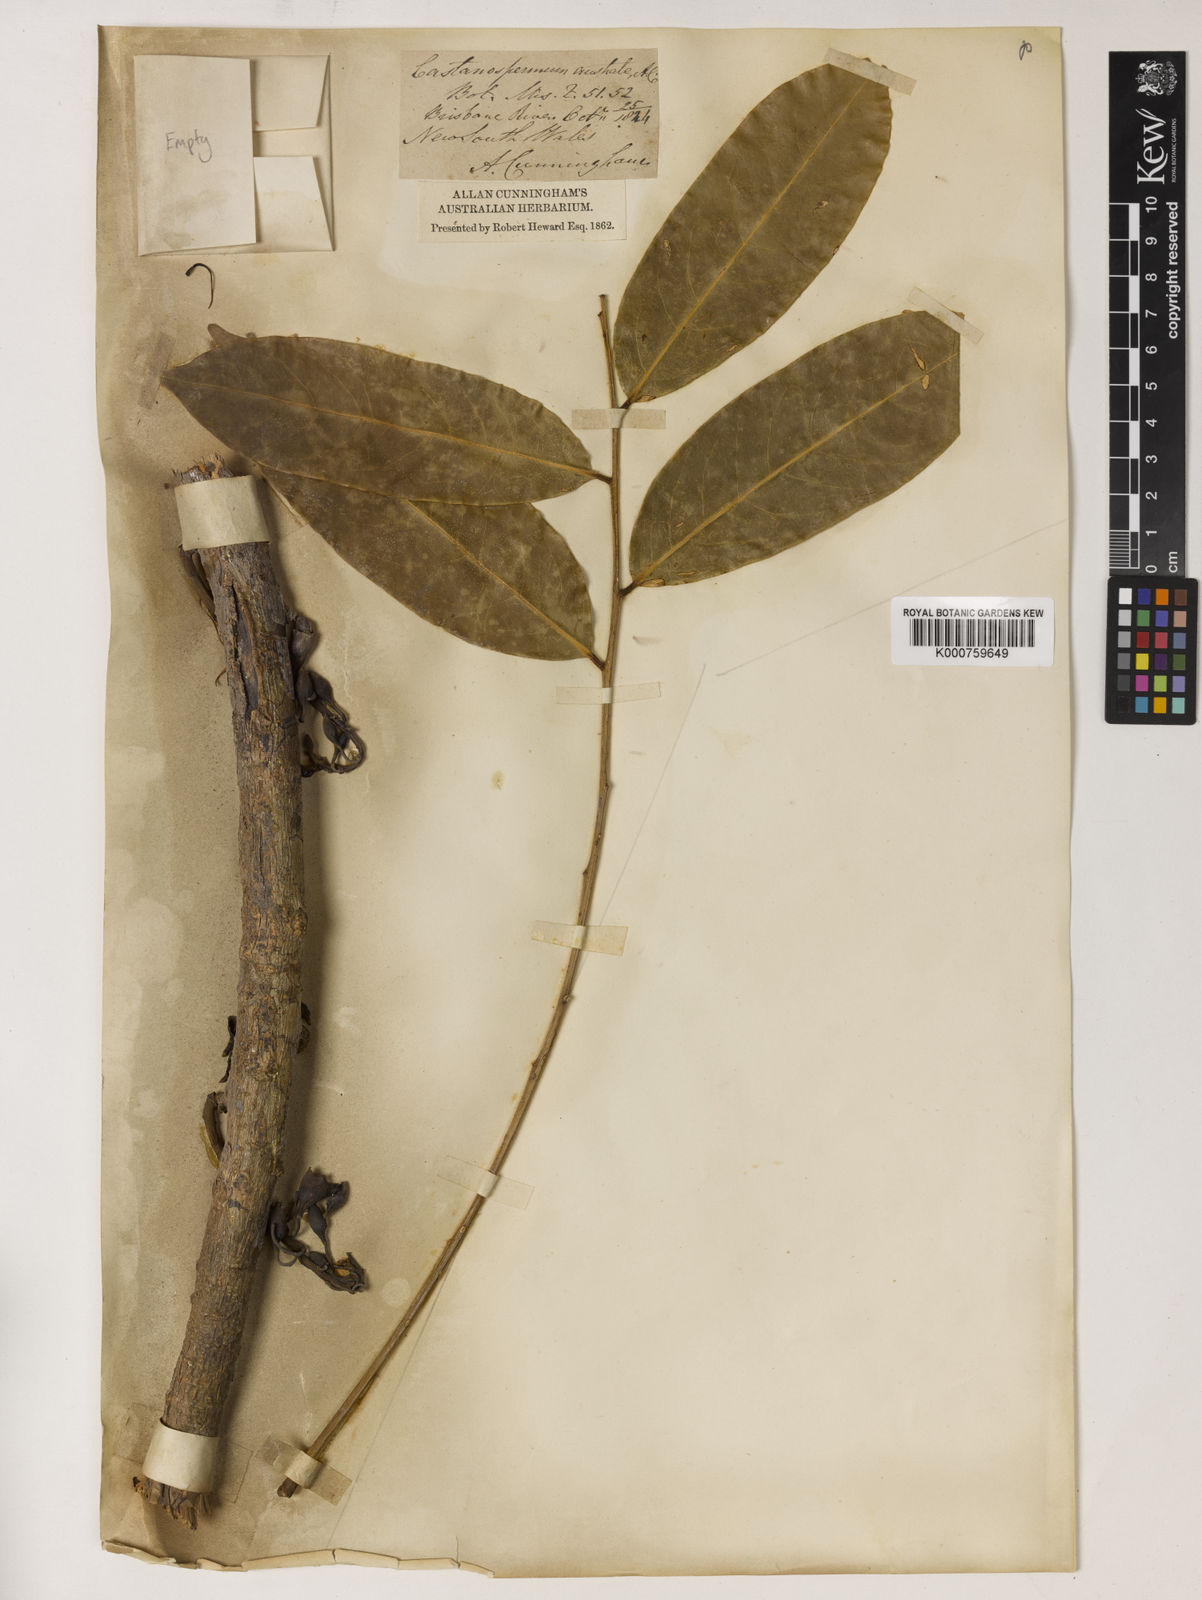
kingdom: Plantae
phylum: Tracheophyta
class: Magnoliopsida
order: Fabales
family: Fabaceae
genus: Castanospermum
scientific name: Castanospermum
